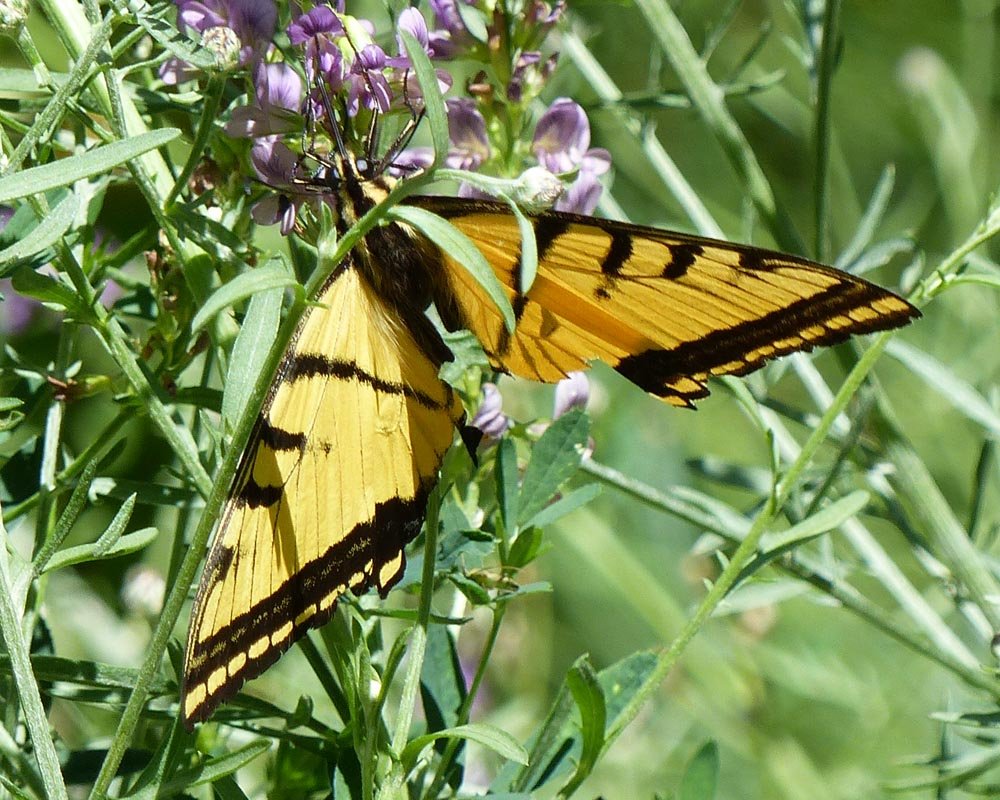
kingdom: Animalia
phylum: Arthropoda
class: Insecta
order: Lepidoptera
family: Papilionidae
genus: Papilio
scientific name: Papilio multicaudata
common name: Two-tailed Swallowtail
